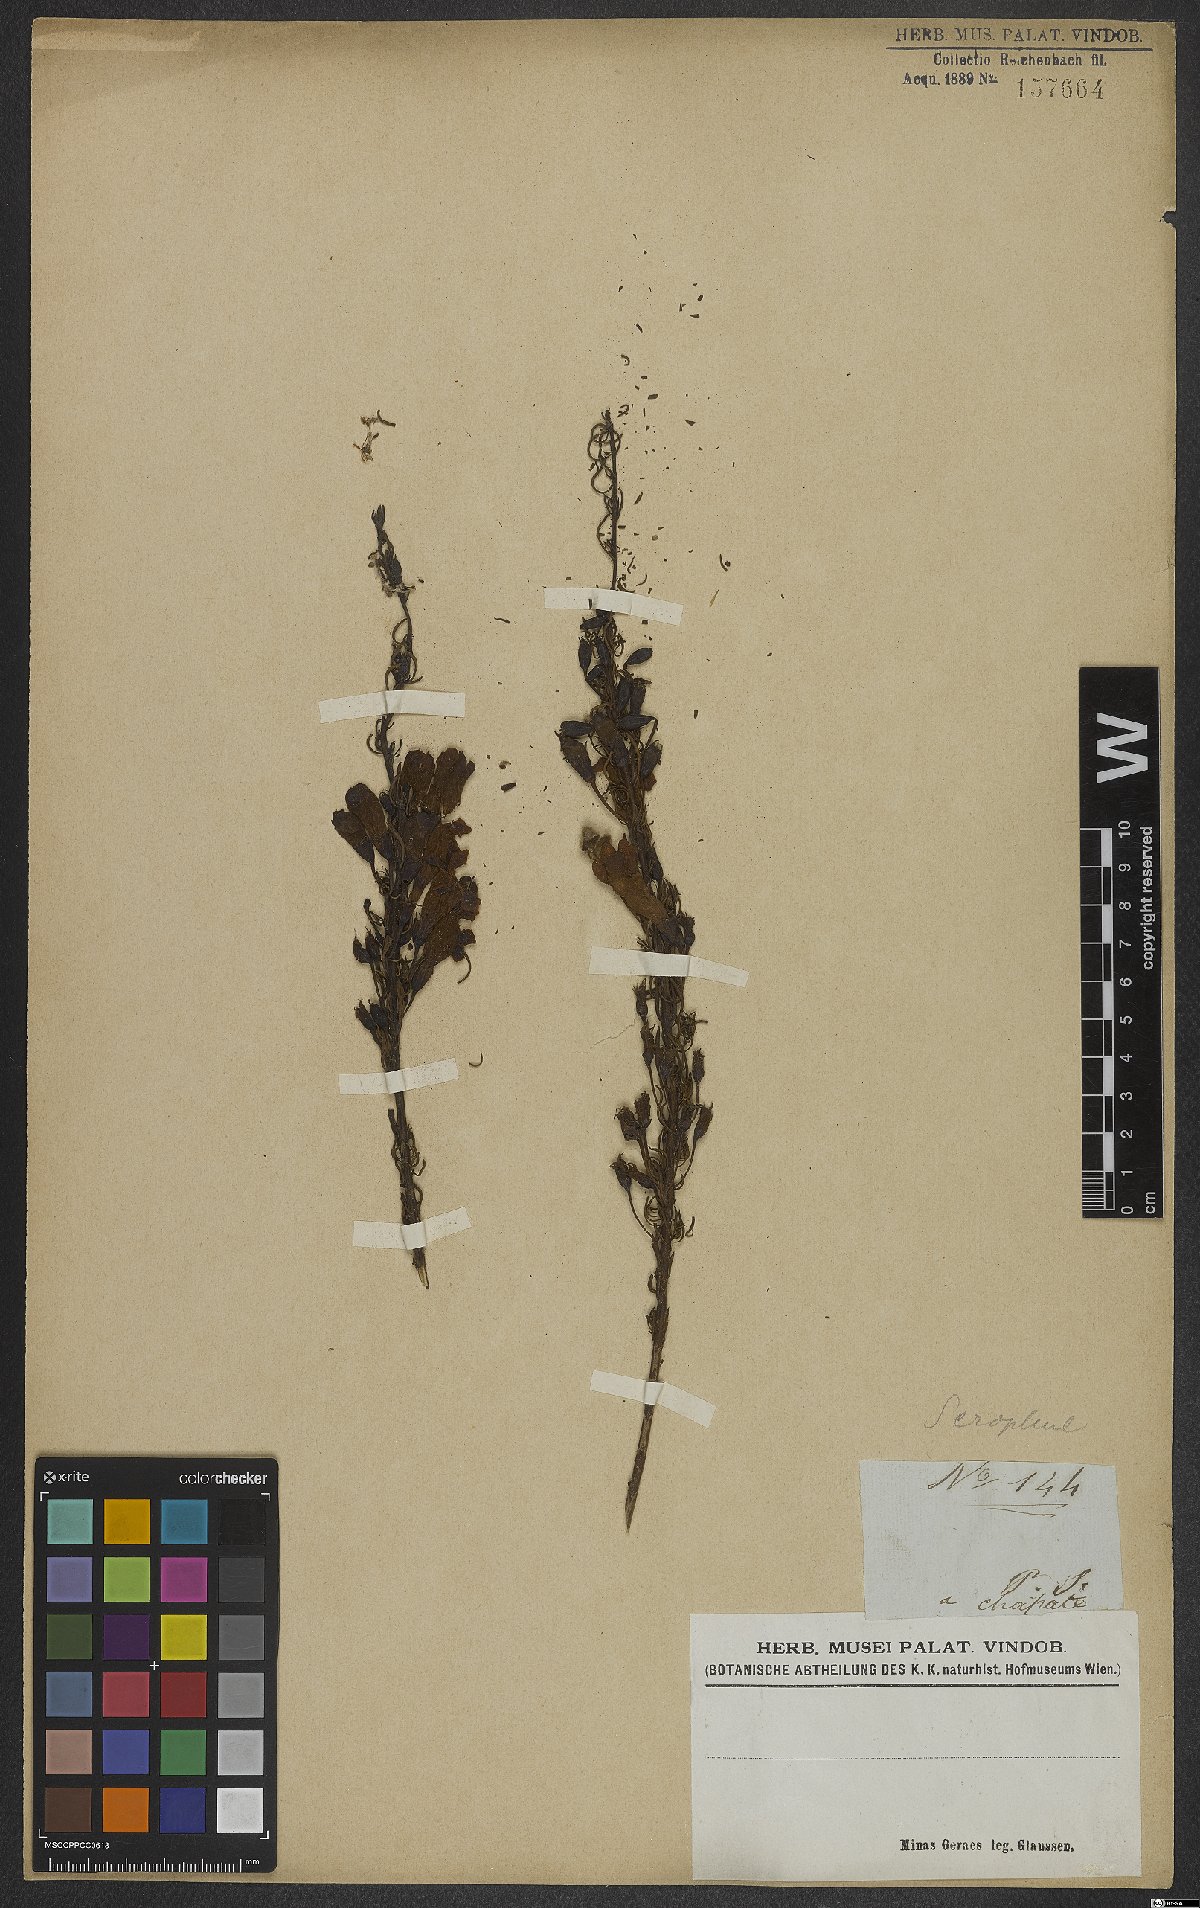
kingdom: Plantae
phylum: Tracheophyta
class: Magnoliopsida
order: Lamiales
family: Scrophulariaceae
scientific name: Scrophulariaceae
